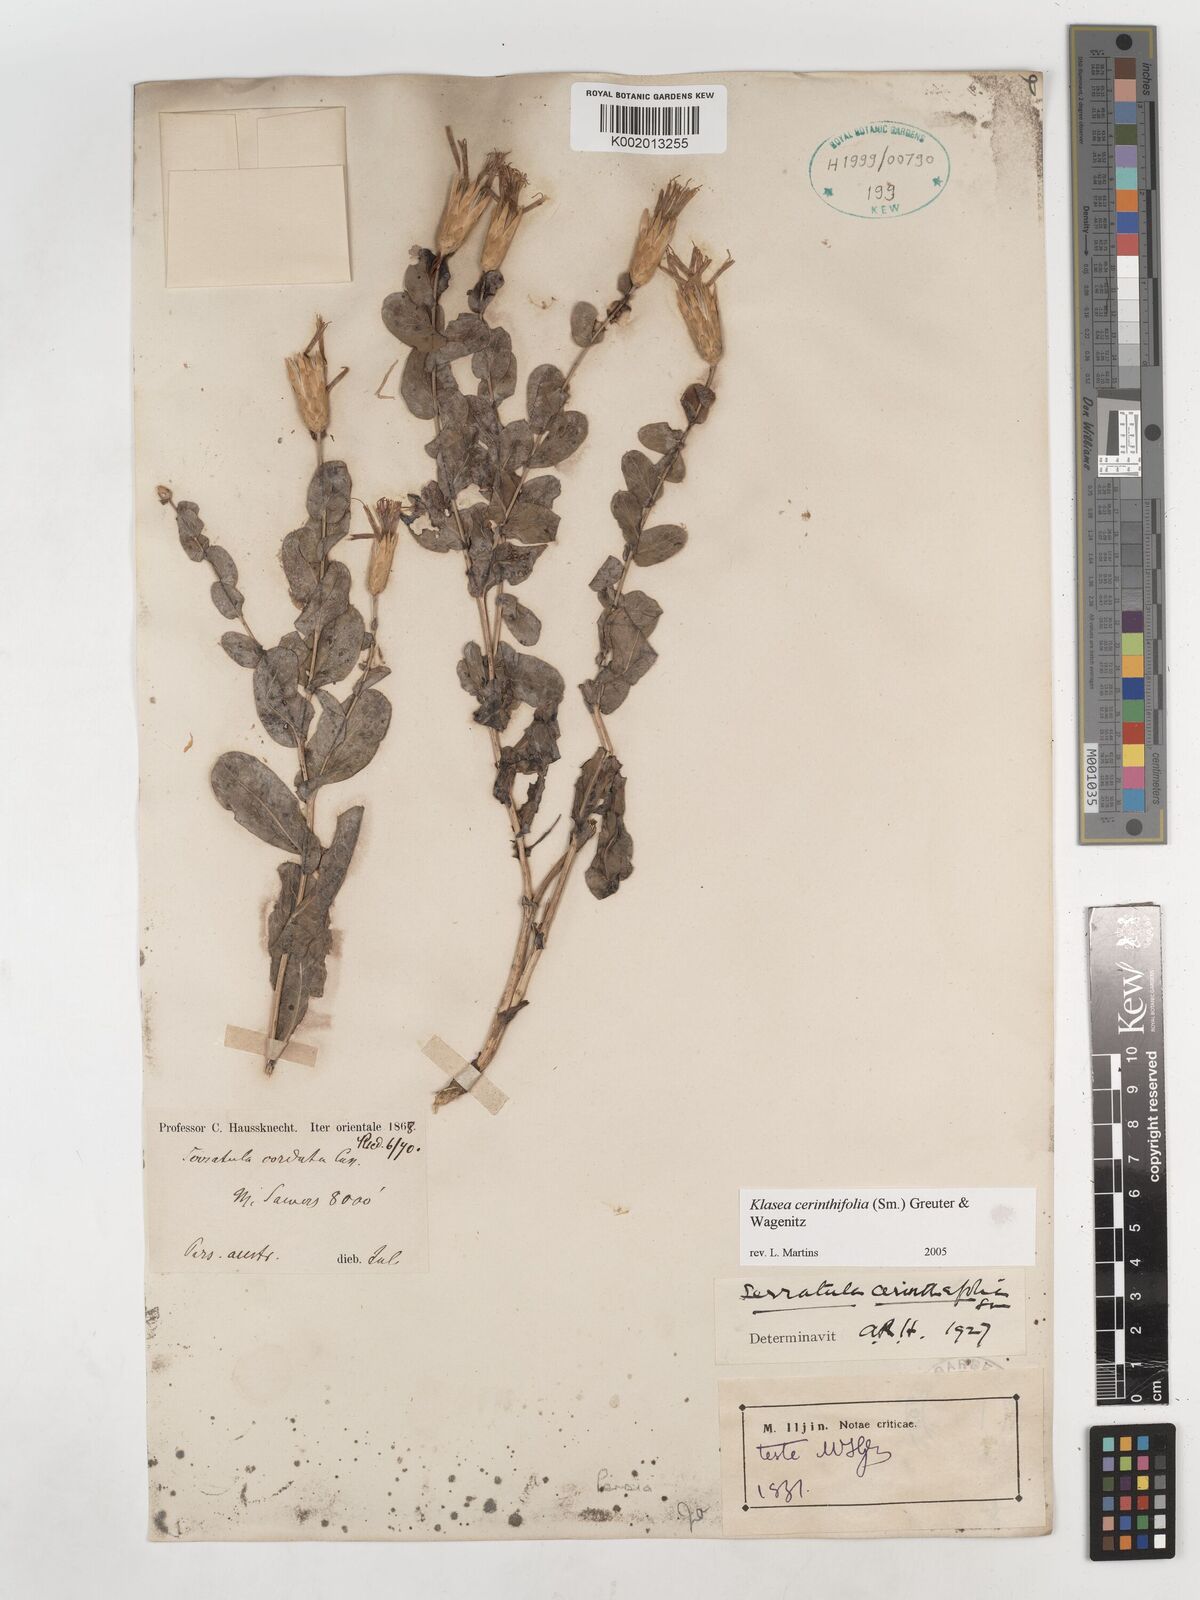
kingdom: Plantae
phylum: Tracheophyta
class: Magnoliopsida
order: Asterales
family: Asteraceae
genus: Klasea
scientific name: Klasea cerinthifolia
